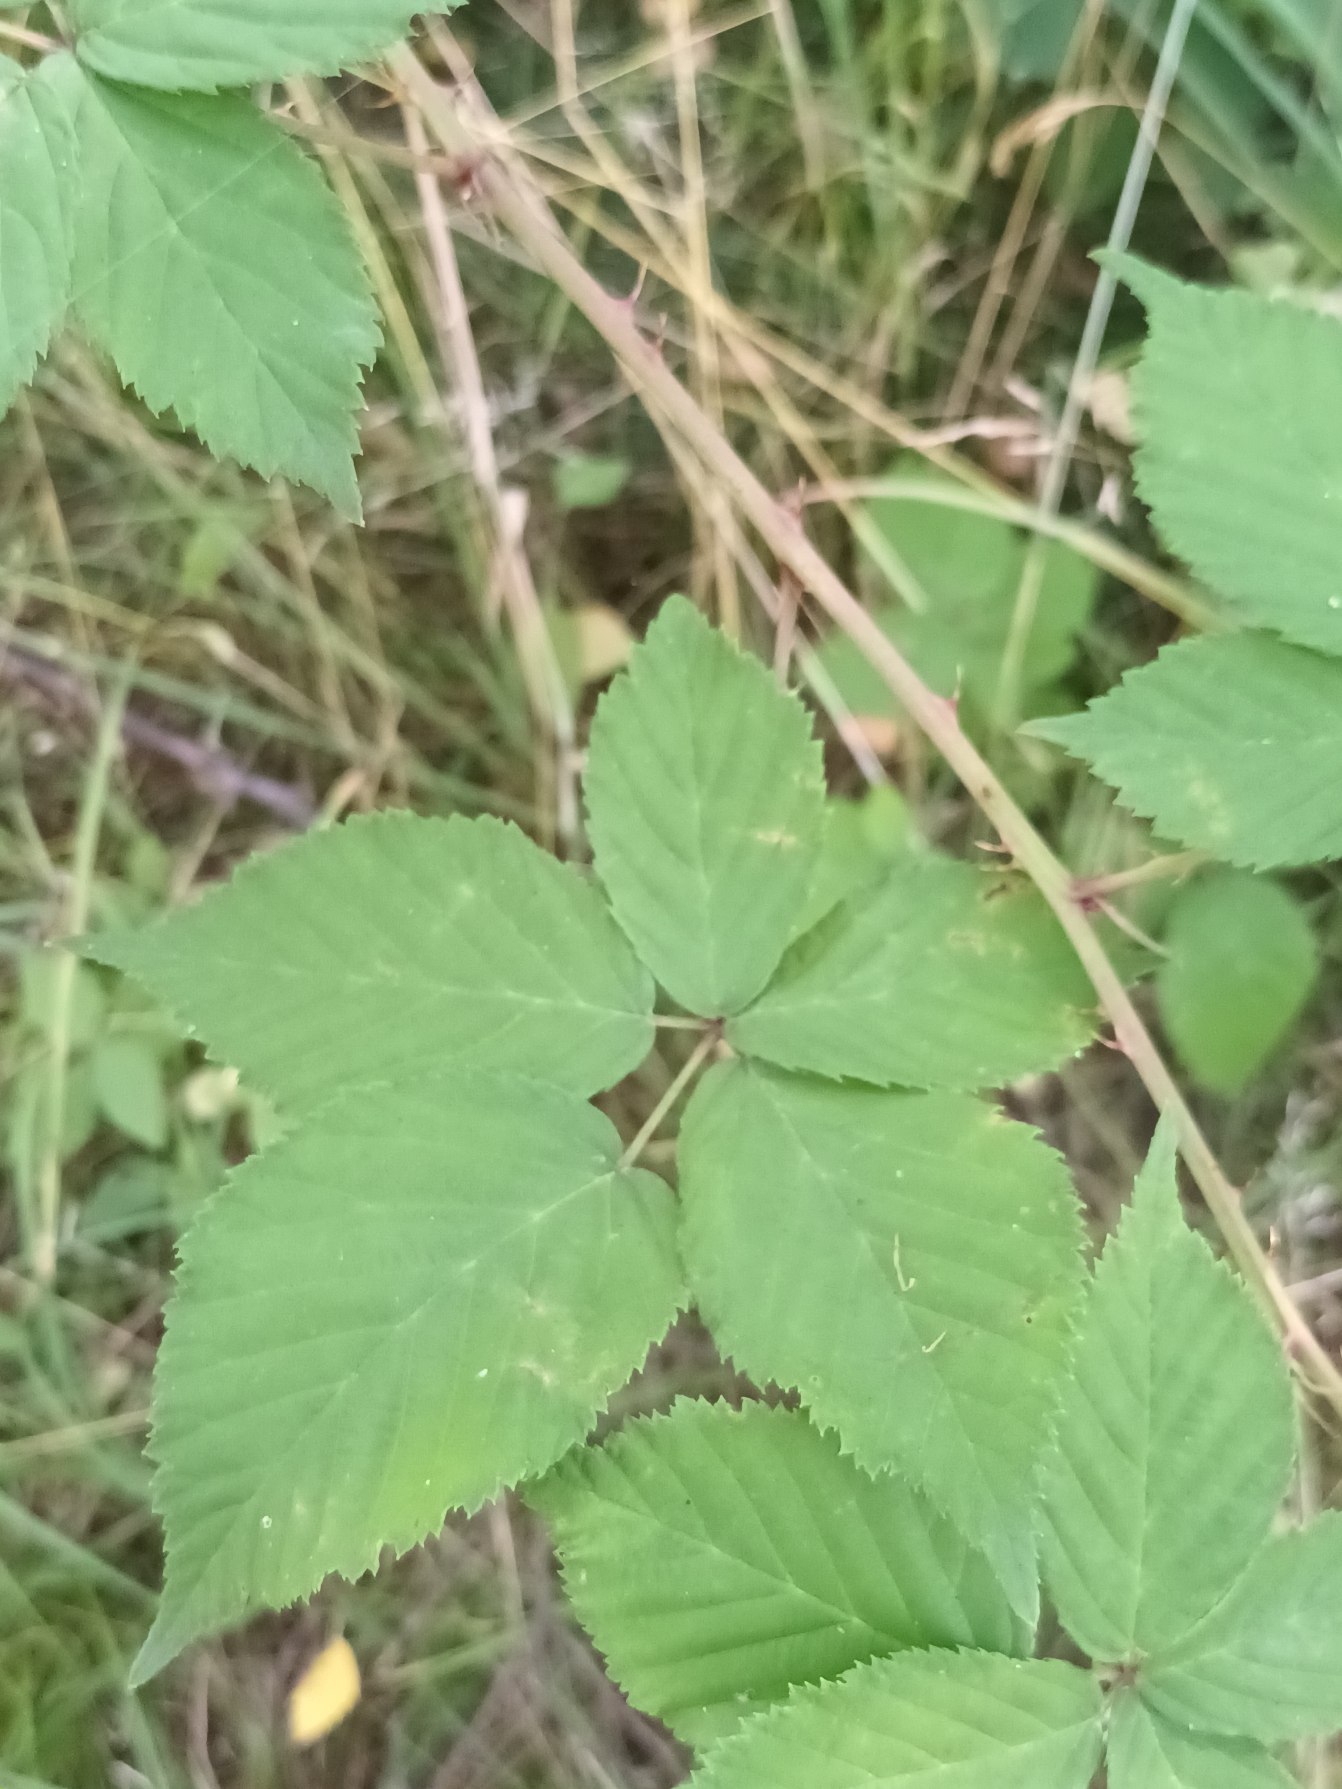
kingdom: Plantae
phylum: Tracheophyta
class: Magnoliopsida
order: Rosales
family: Rosaceae
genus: Rubus
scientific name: Rubus plicatus
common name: Almindelig brombær
